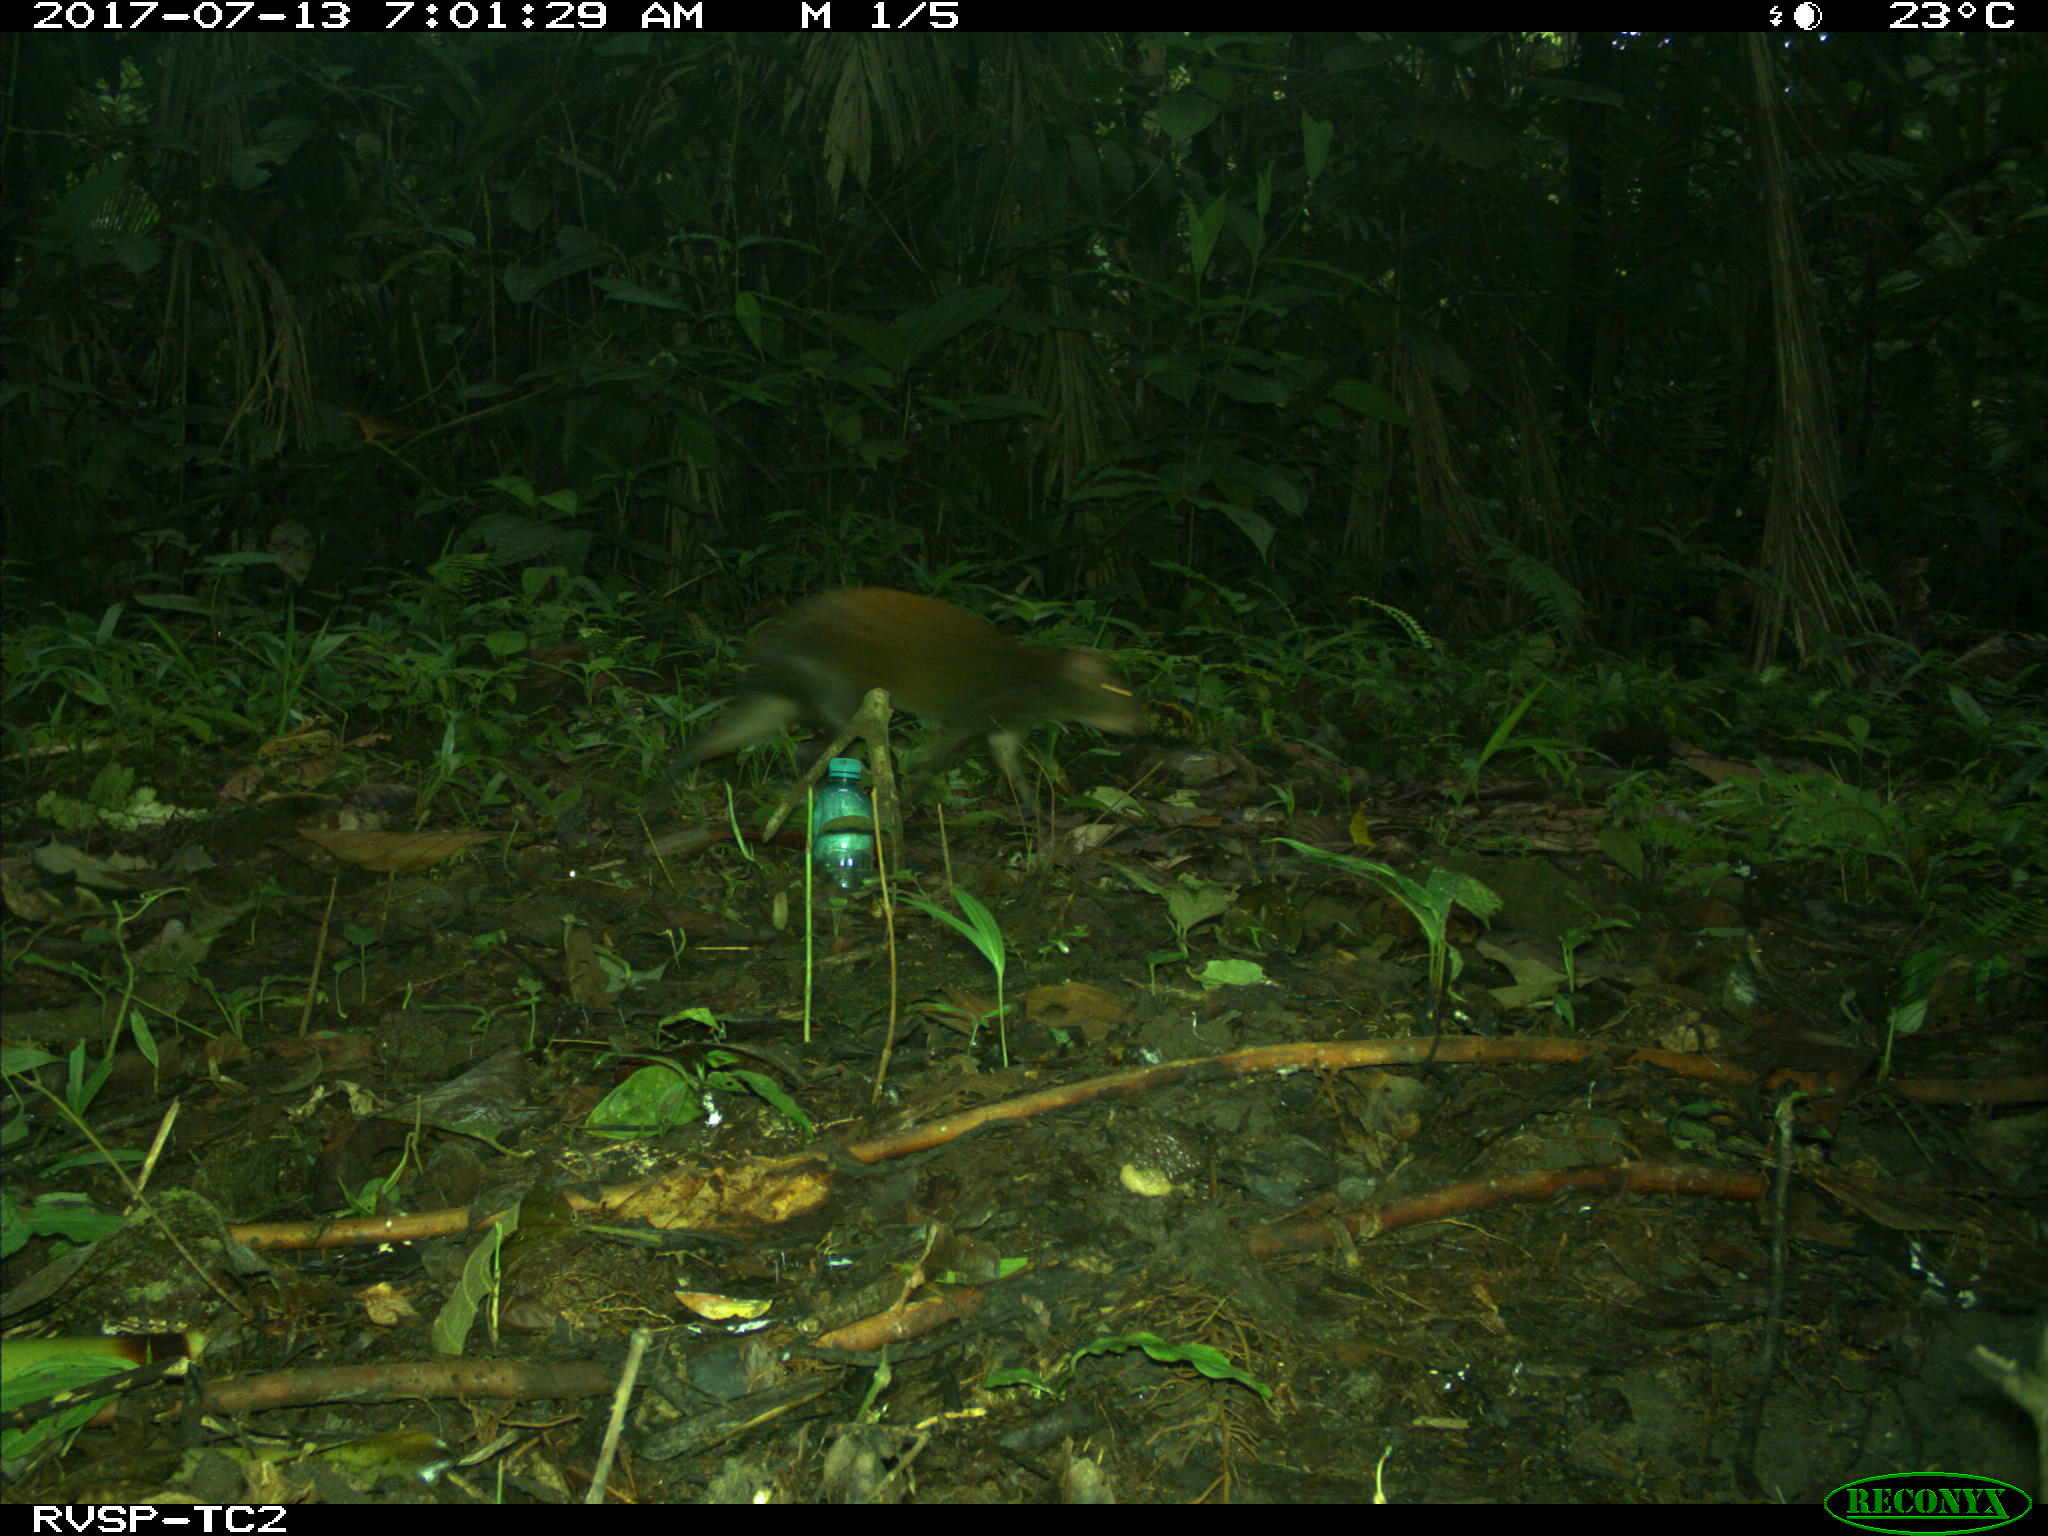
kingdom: Animalia
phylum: Chordata
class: Mammalia
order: Rodentia
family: Dasyproctidae
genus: Dasyprocta
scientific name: Dasyprocta punctata
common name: Central american agouti
